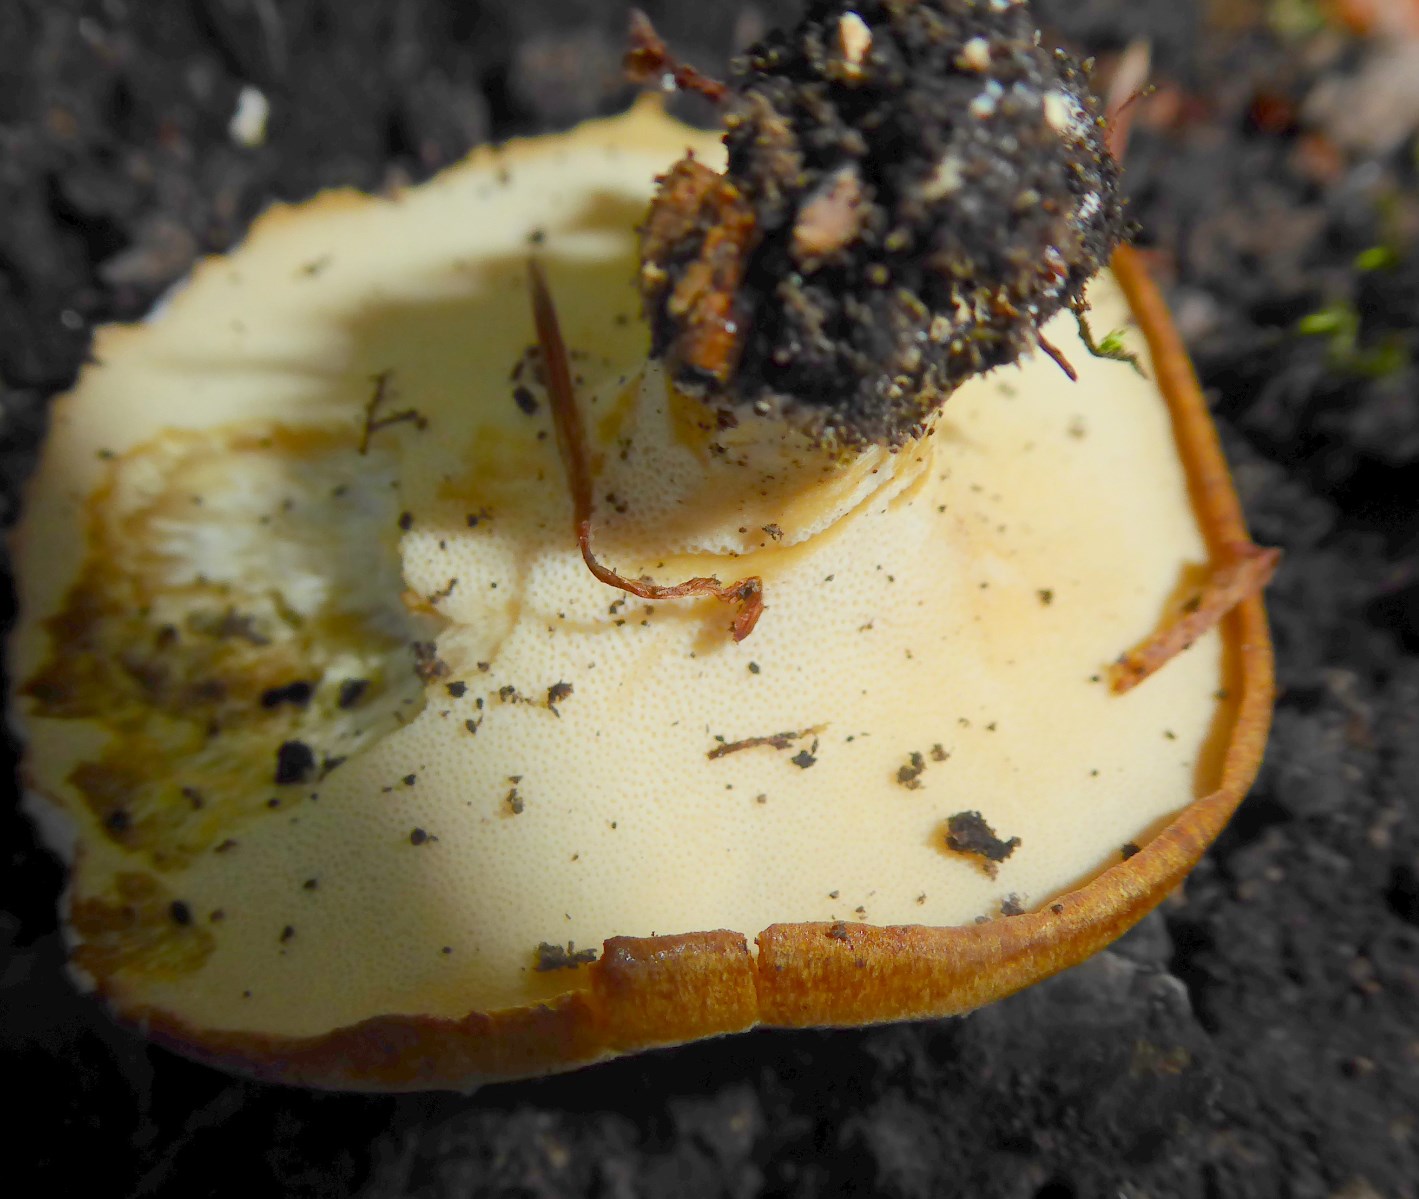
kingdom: Fungi
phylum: Basidiomycota
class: Agaricomycetes
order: Polyporales
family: Polyporaceae
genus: Cerioporus
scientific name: Cerioporus varius
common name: foranderlig stilkporesvamp
